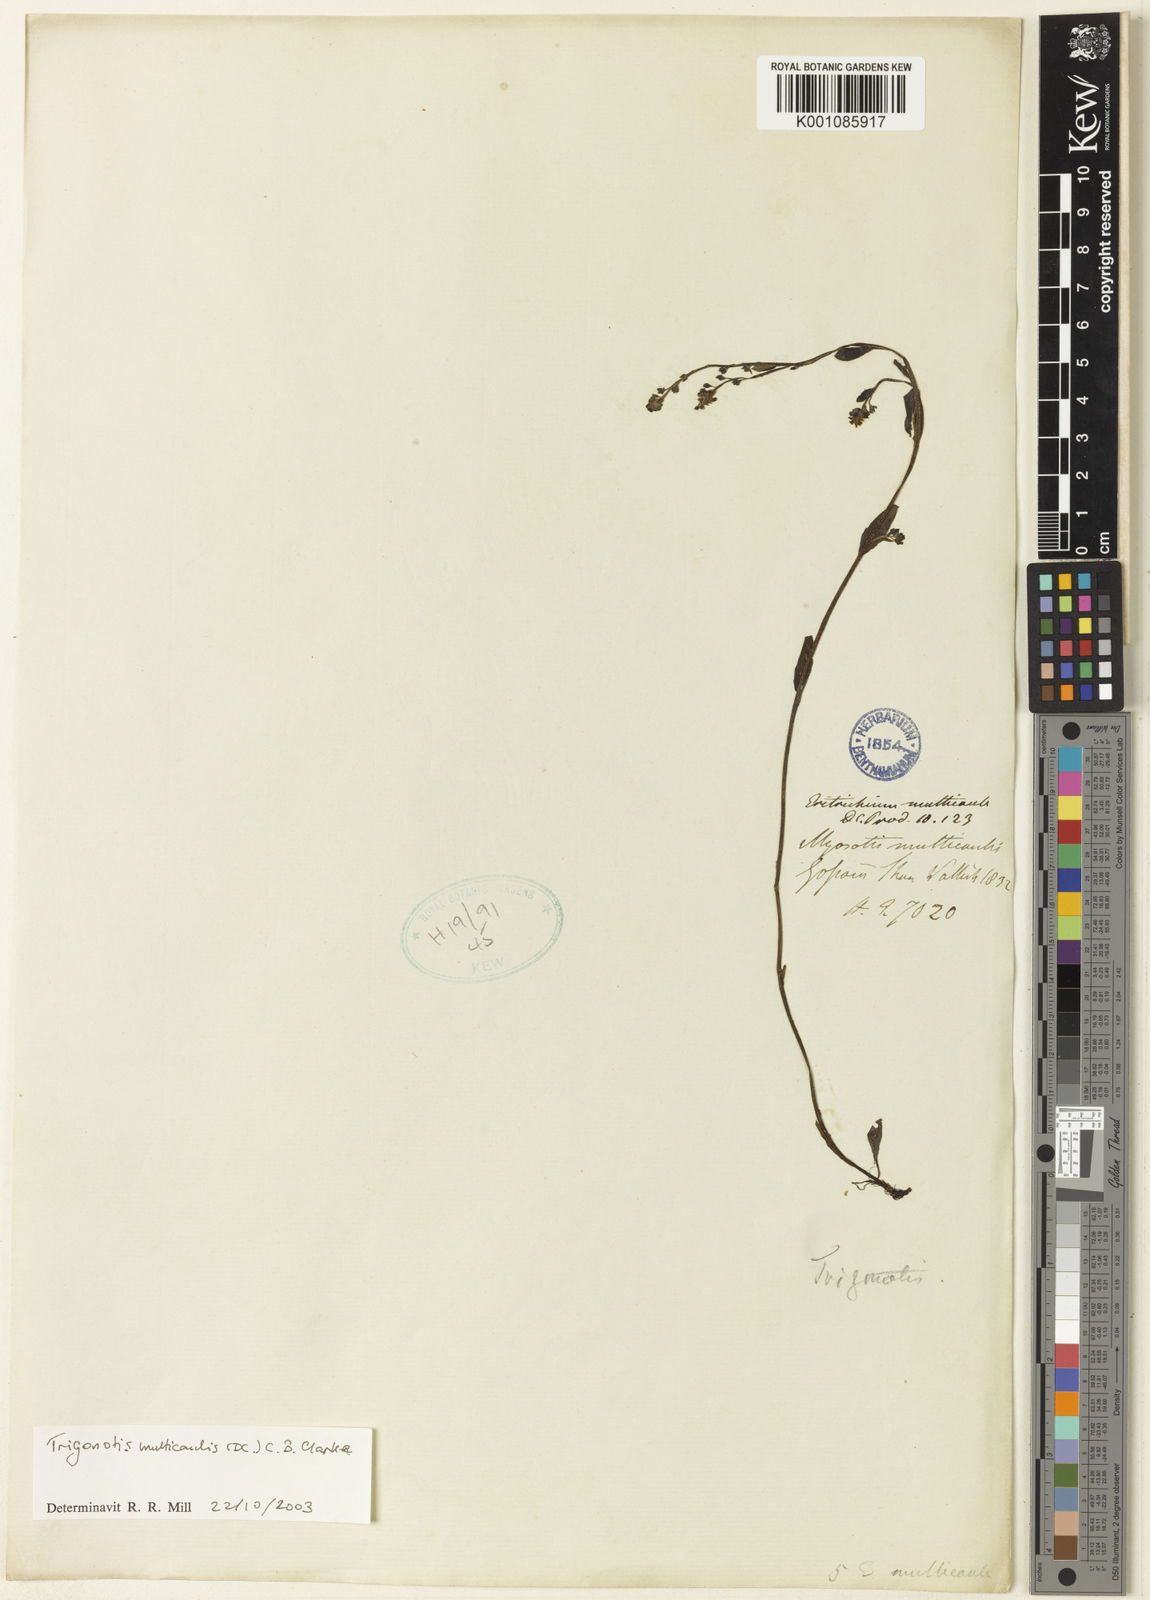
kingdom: Plantae
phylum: Tracheophyta
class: Magnoliopsida
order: Boraginales
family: Boraginaceae
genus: Trigonotis
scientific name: Trigonotis multicaulis
